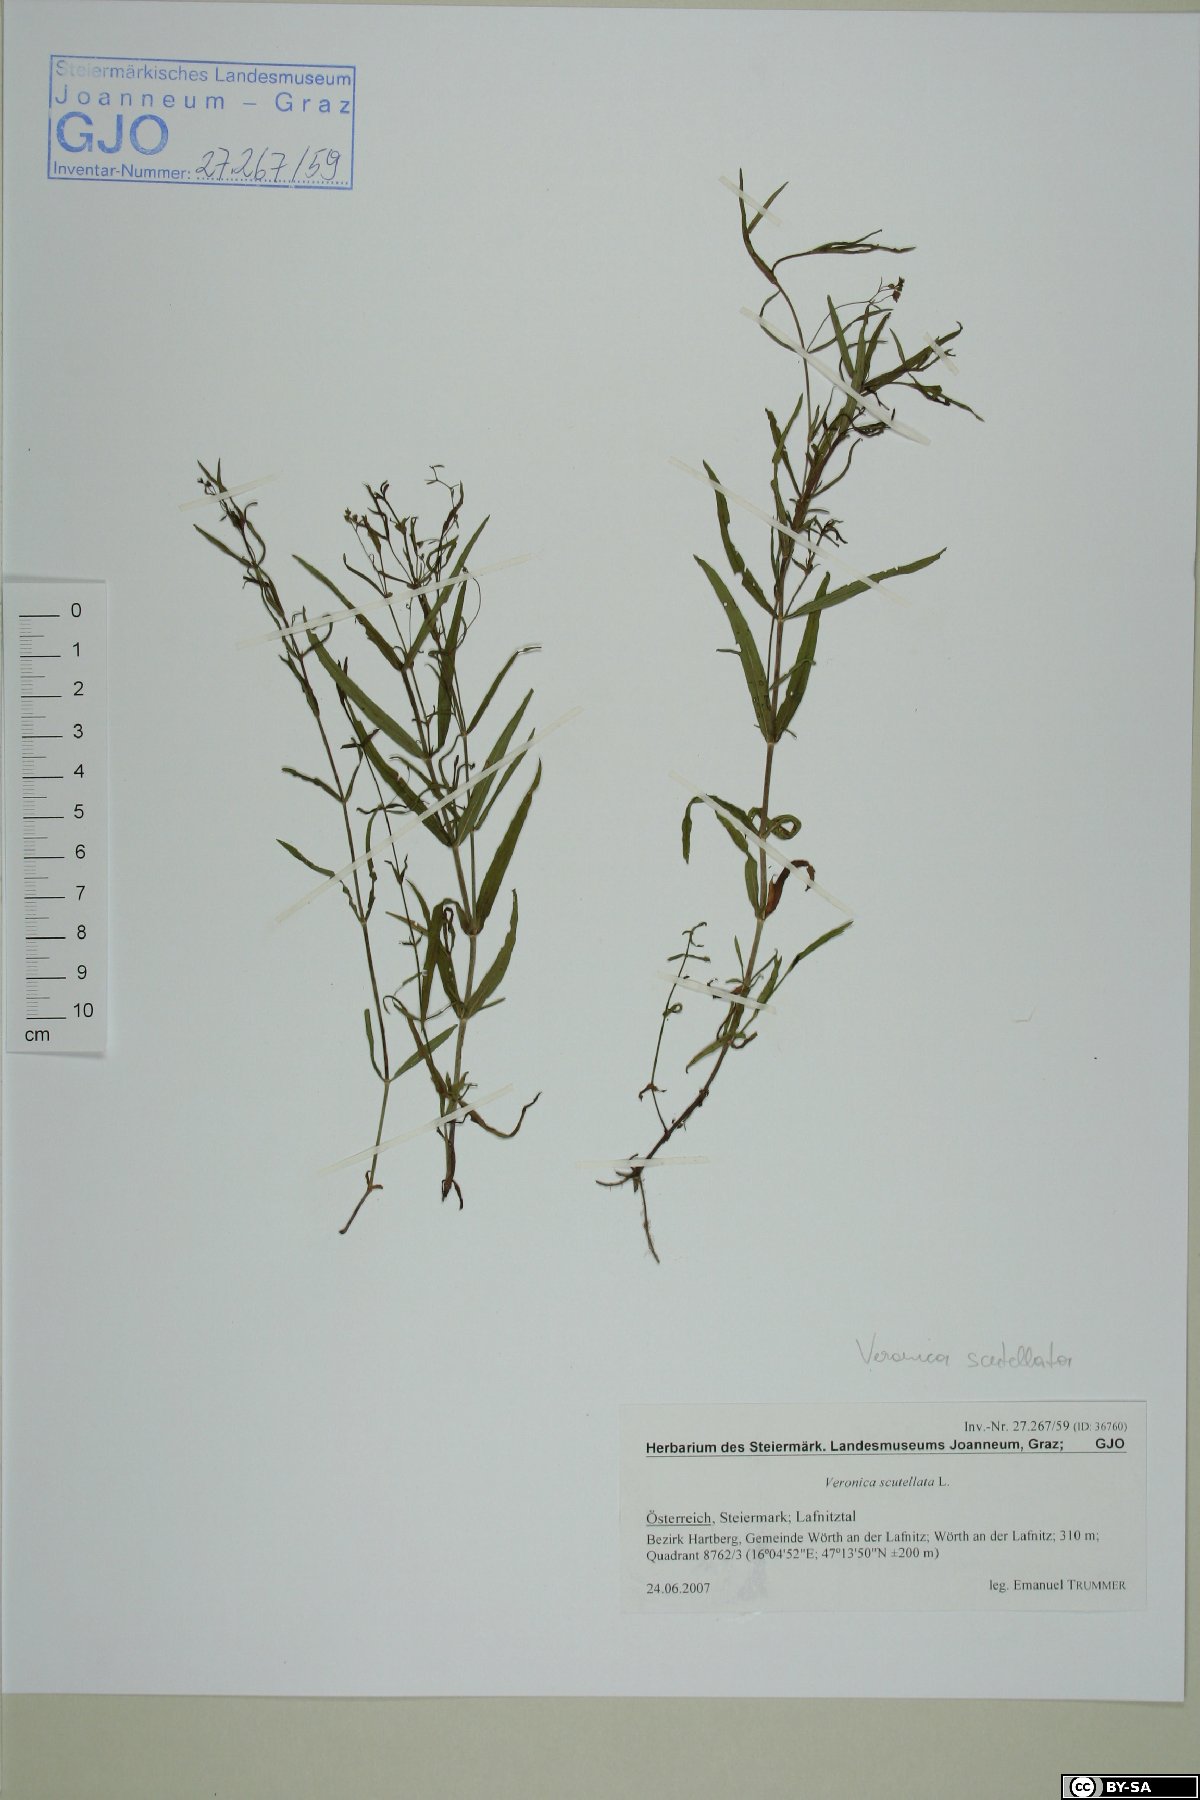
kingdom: Plantae
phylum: Tracheophyta
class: Magnoliopsida
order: Lamiales
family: Plantaginaceae
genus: Veronica
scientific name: Veronica scutellata
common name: Marsh speedwell
